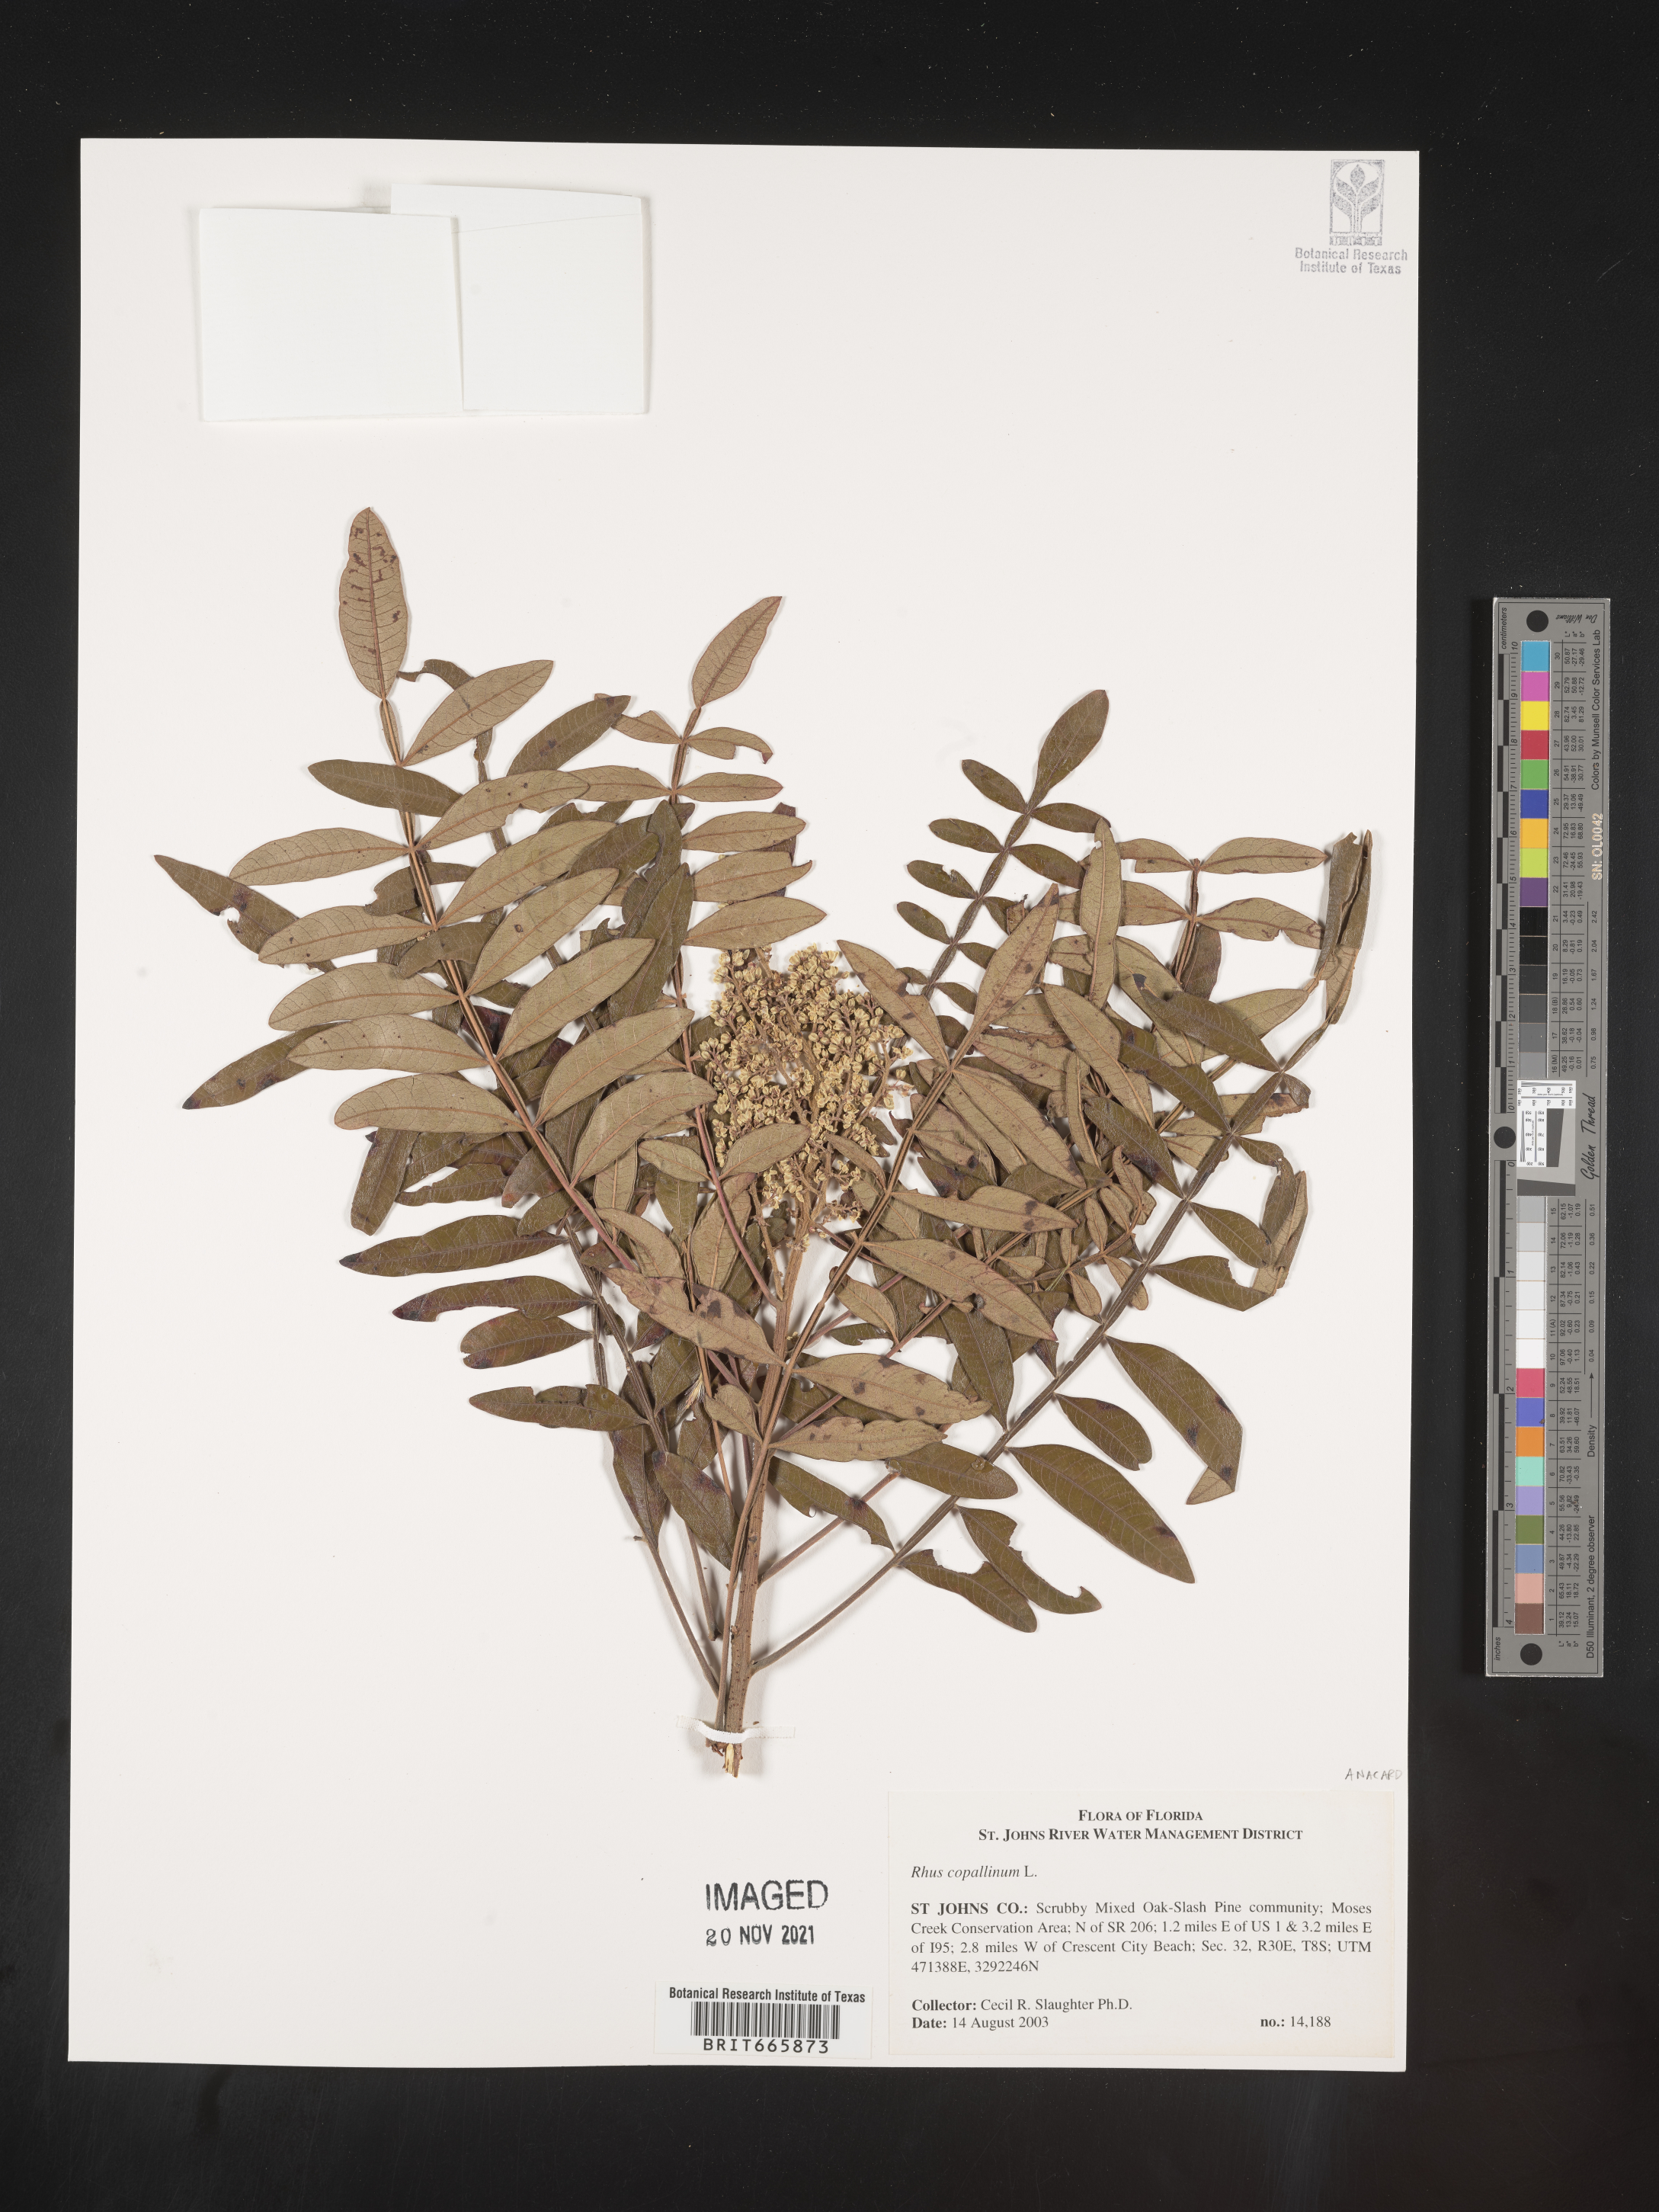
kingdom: Plantae
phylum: Tracheophyta
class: Magnoliopsida
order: Sapindales
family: Anacardiaceae
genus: Rhus
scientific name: Rhus copallina
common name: Shining sumac
